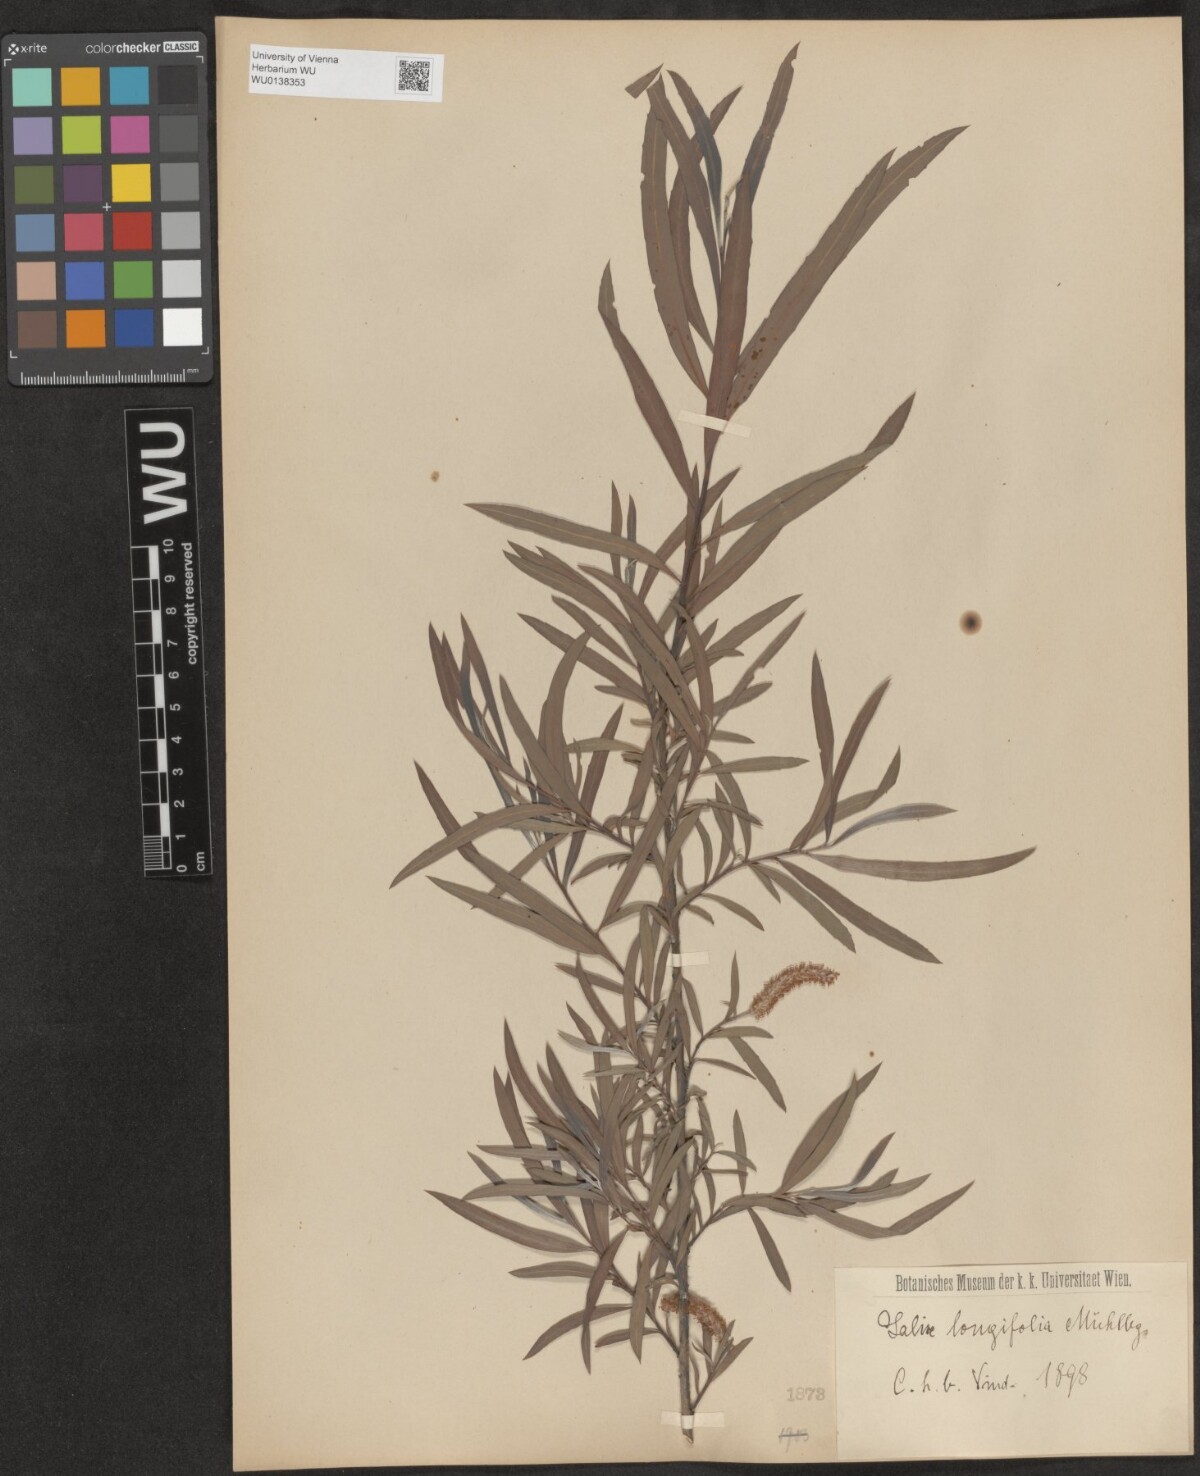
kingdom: Plantae
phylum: Tracheophyta
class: Magnoliopsida
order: Malpighiales
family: Salicaceae
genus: Salix
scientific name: Salix interior
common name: Sandbar willow
